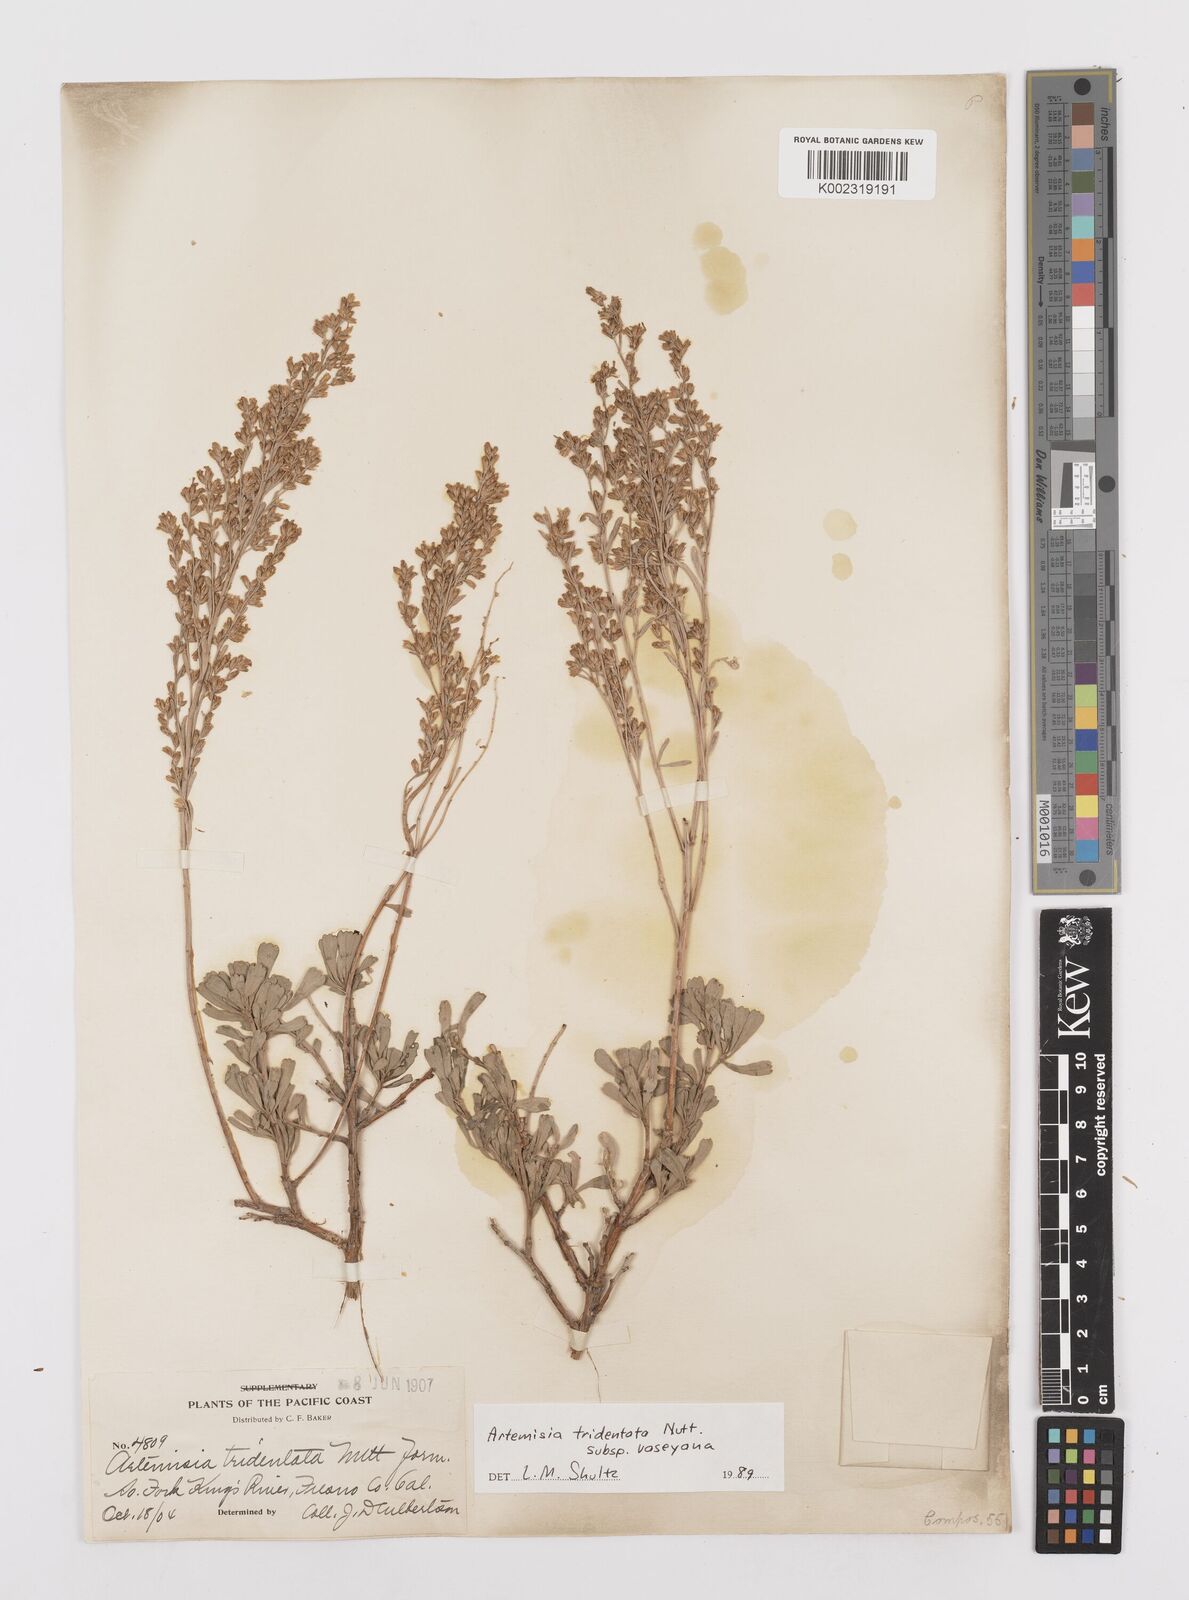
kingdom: Plantae
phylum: Tracheophyta
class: Magnoliopsida
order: Asterales
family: Asteraceae
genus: Artemisia
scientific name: Artemisia tridentata
